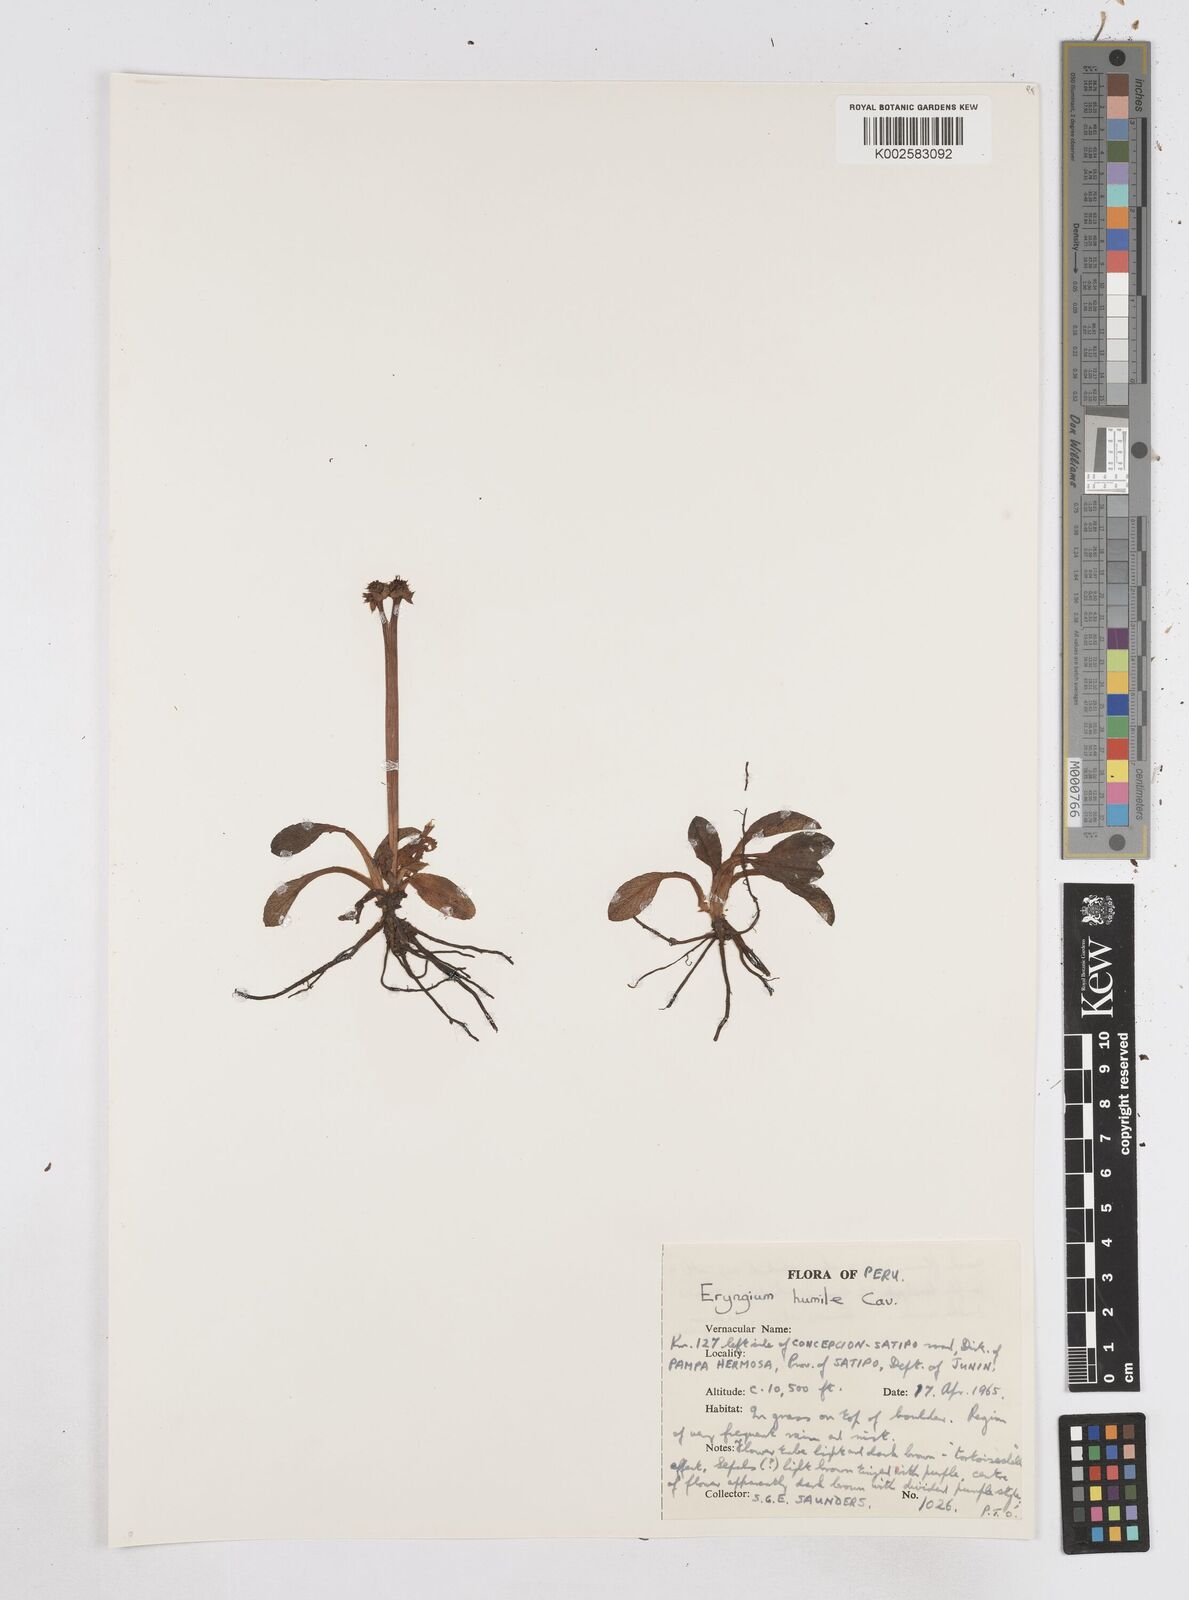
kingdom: Plantae
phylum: Tracheophyta
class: Magnoliopsida
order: Apiales
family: Apiaceae
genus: Eryngium
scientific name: Eryngium humile
